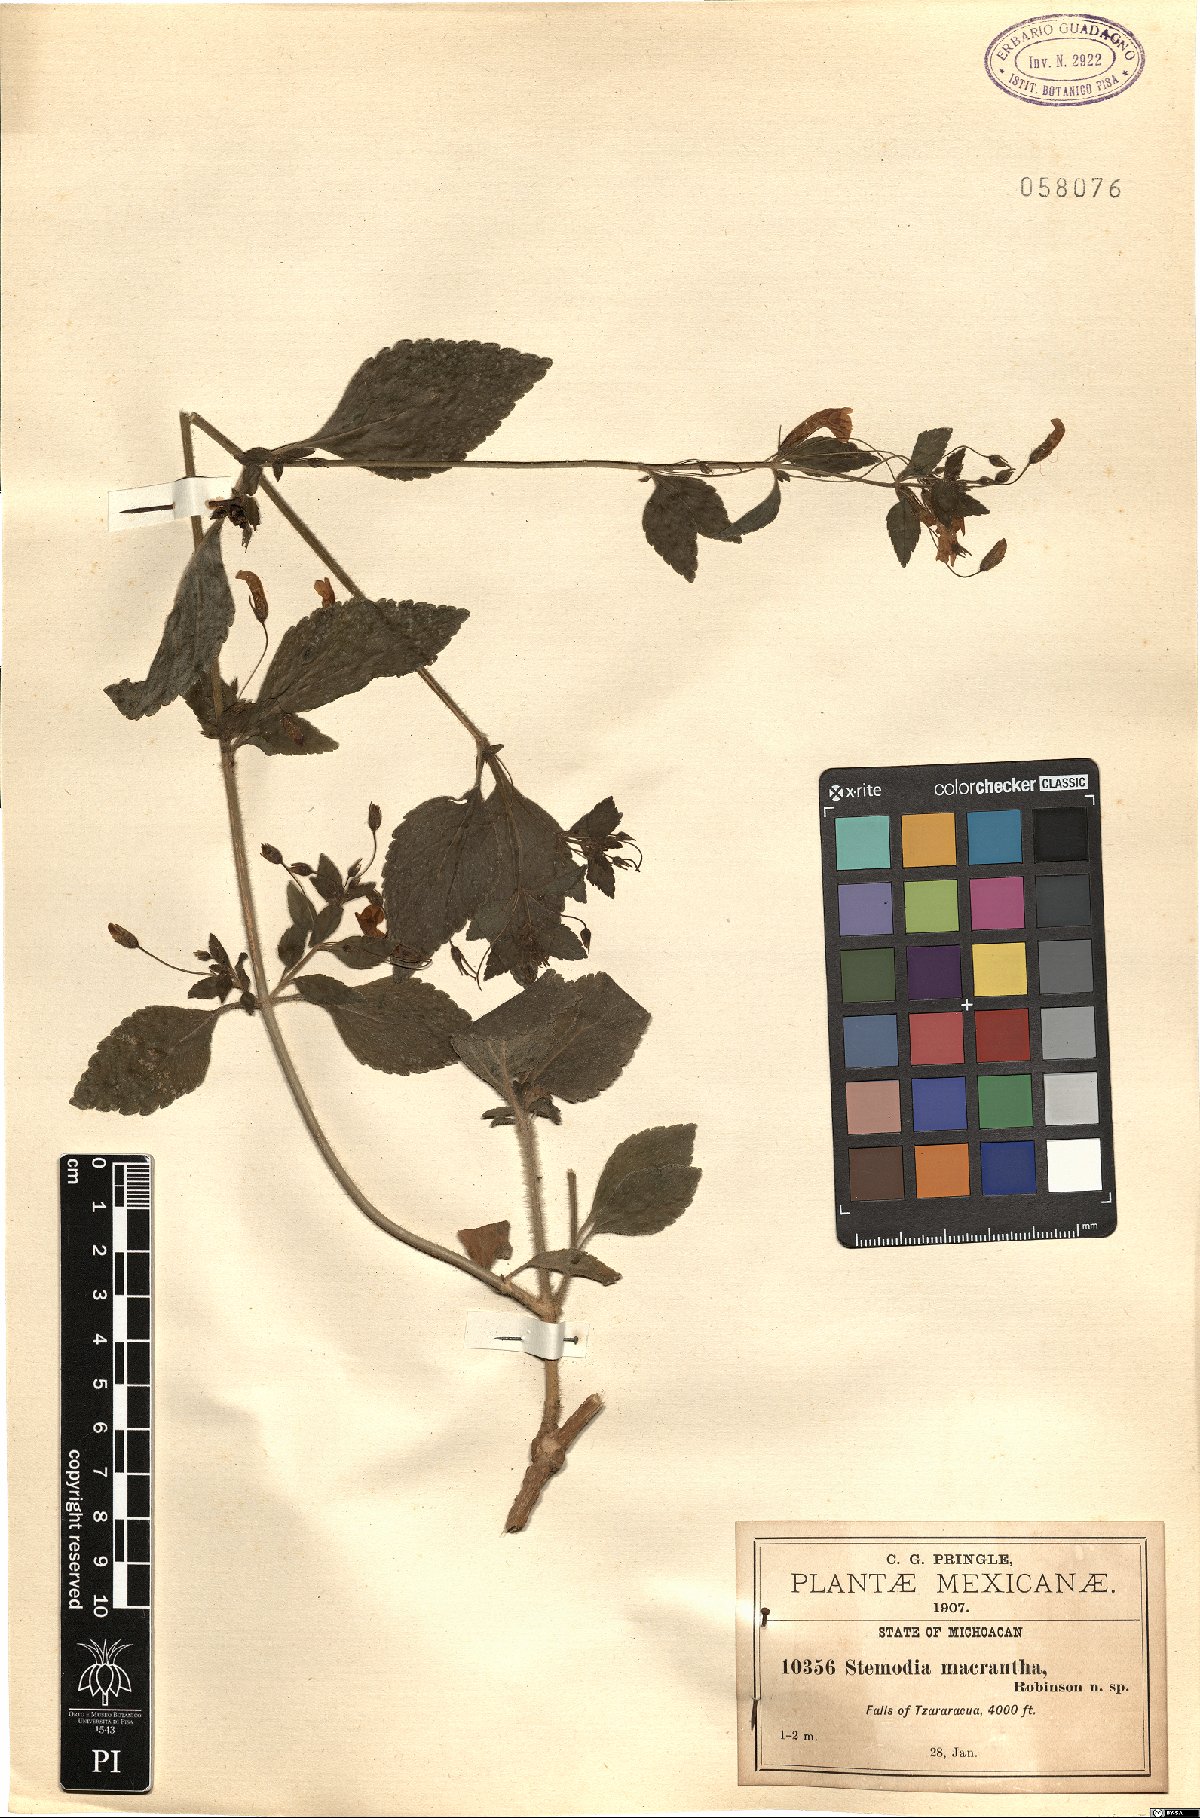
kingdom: Plantae
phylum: Tracheophyta
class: Magnoliopsida
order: Lamiales
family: Plantaginaceae
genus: Stemodia
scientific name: Stemodia macrantha
